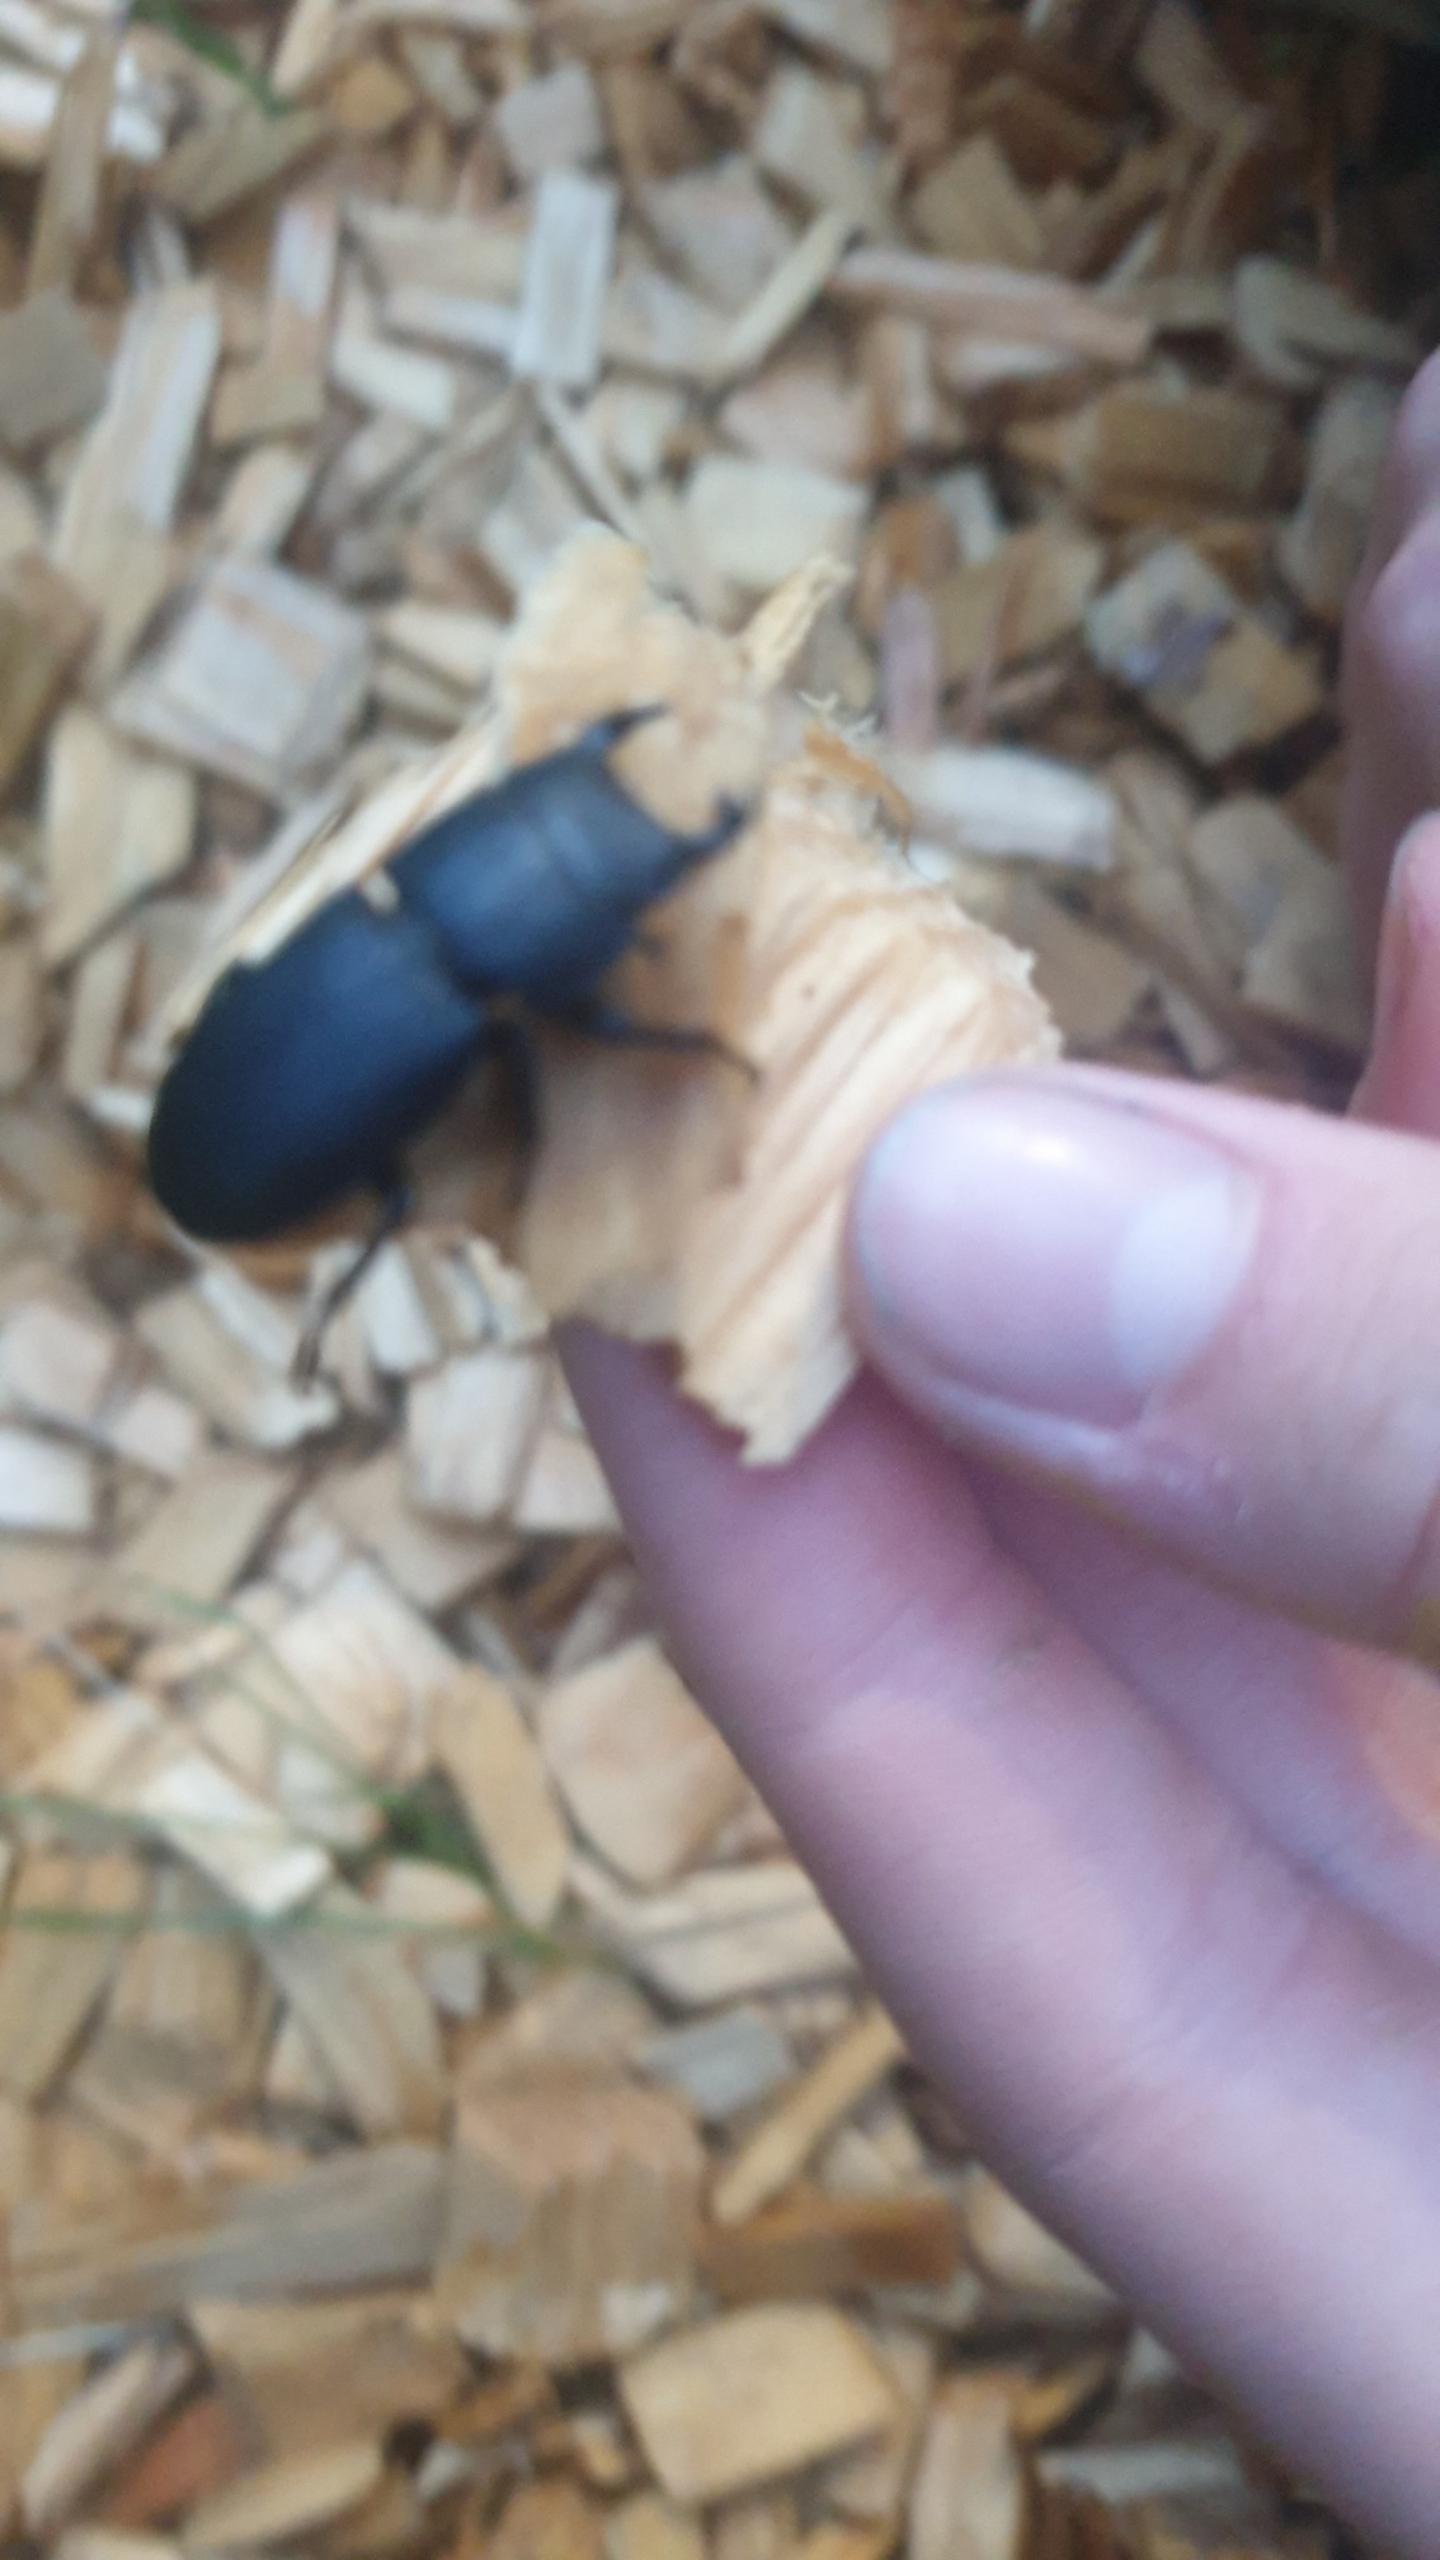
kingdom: Animalia
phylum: Arthropoda
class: Insecta
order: Coleoptera
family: Lucanidae
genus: Dorcus
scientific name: Dorcus parallelipipedus
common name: Bøghjort
